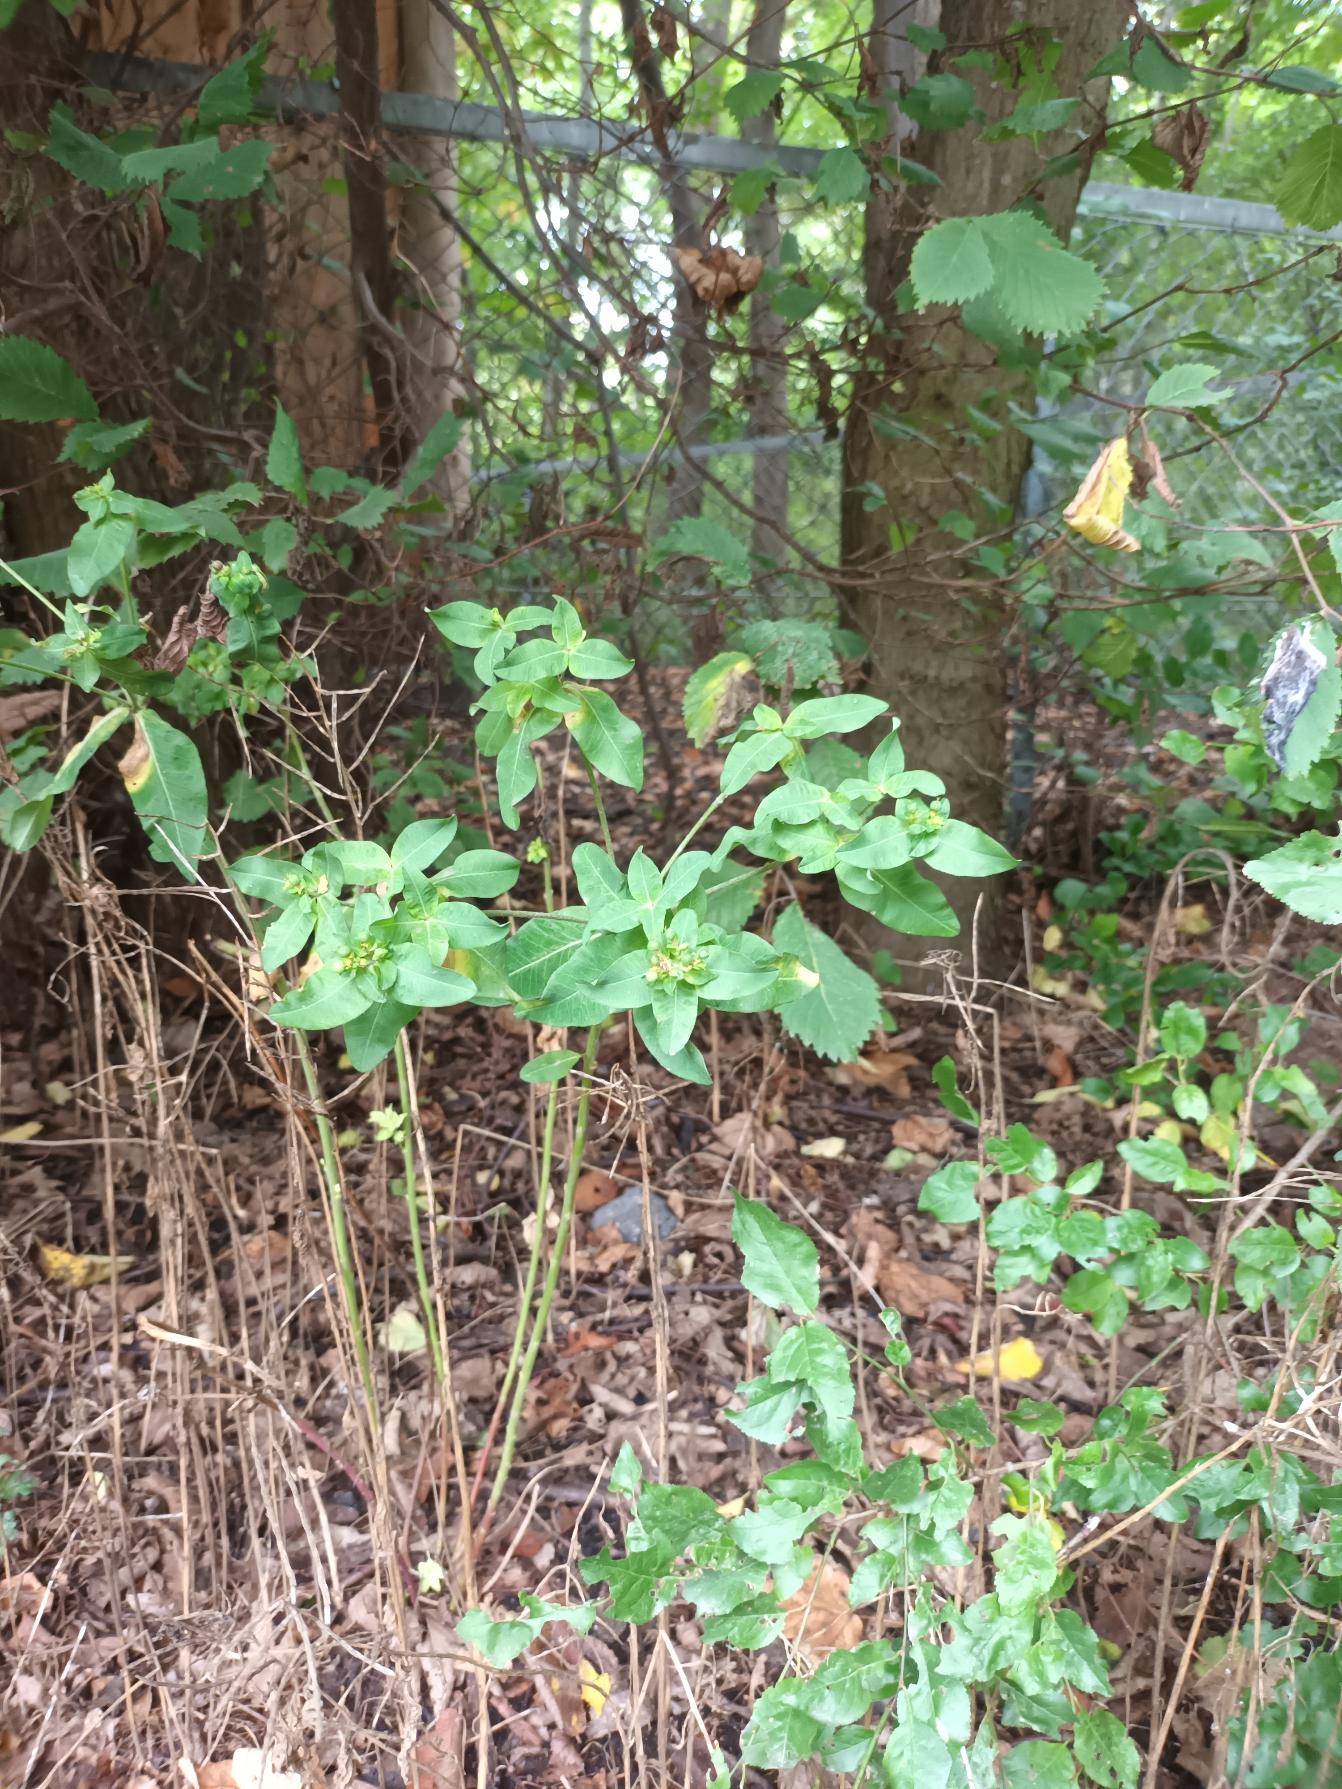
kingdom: Plantae
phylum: Tracheophyta
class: Magnoliopsida
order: Malpighiales
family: Euphorbiaceae
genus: Euphorbia
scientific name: Euphorbia oblongata
